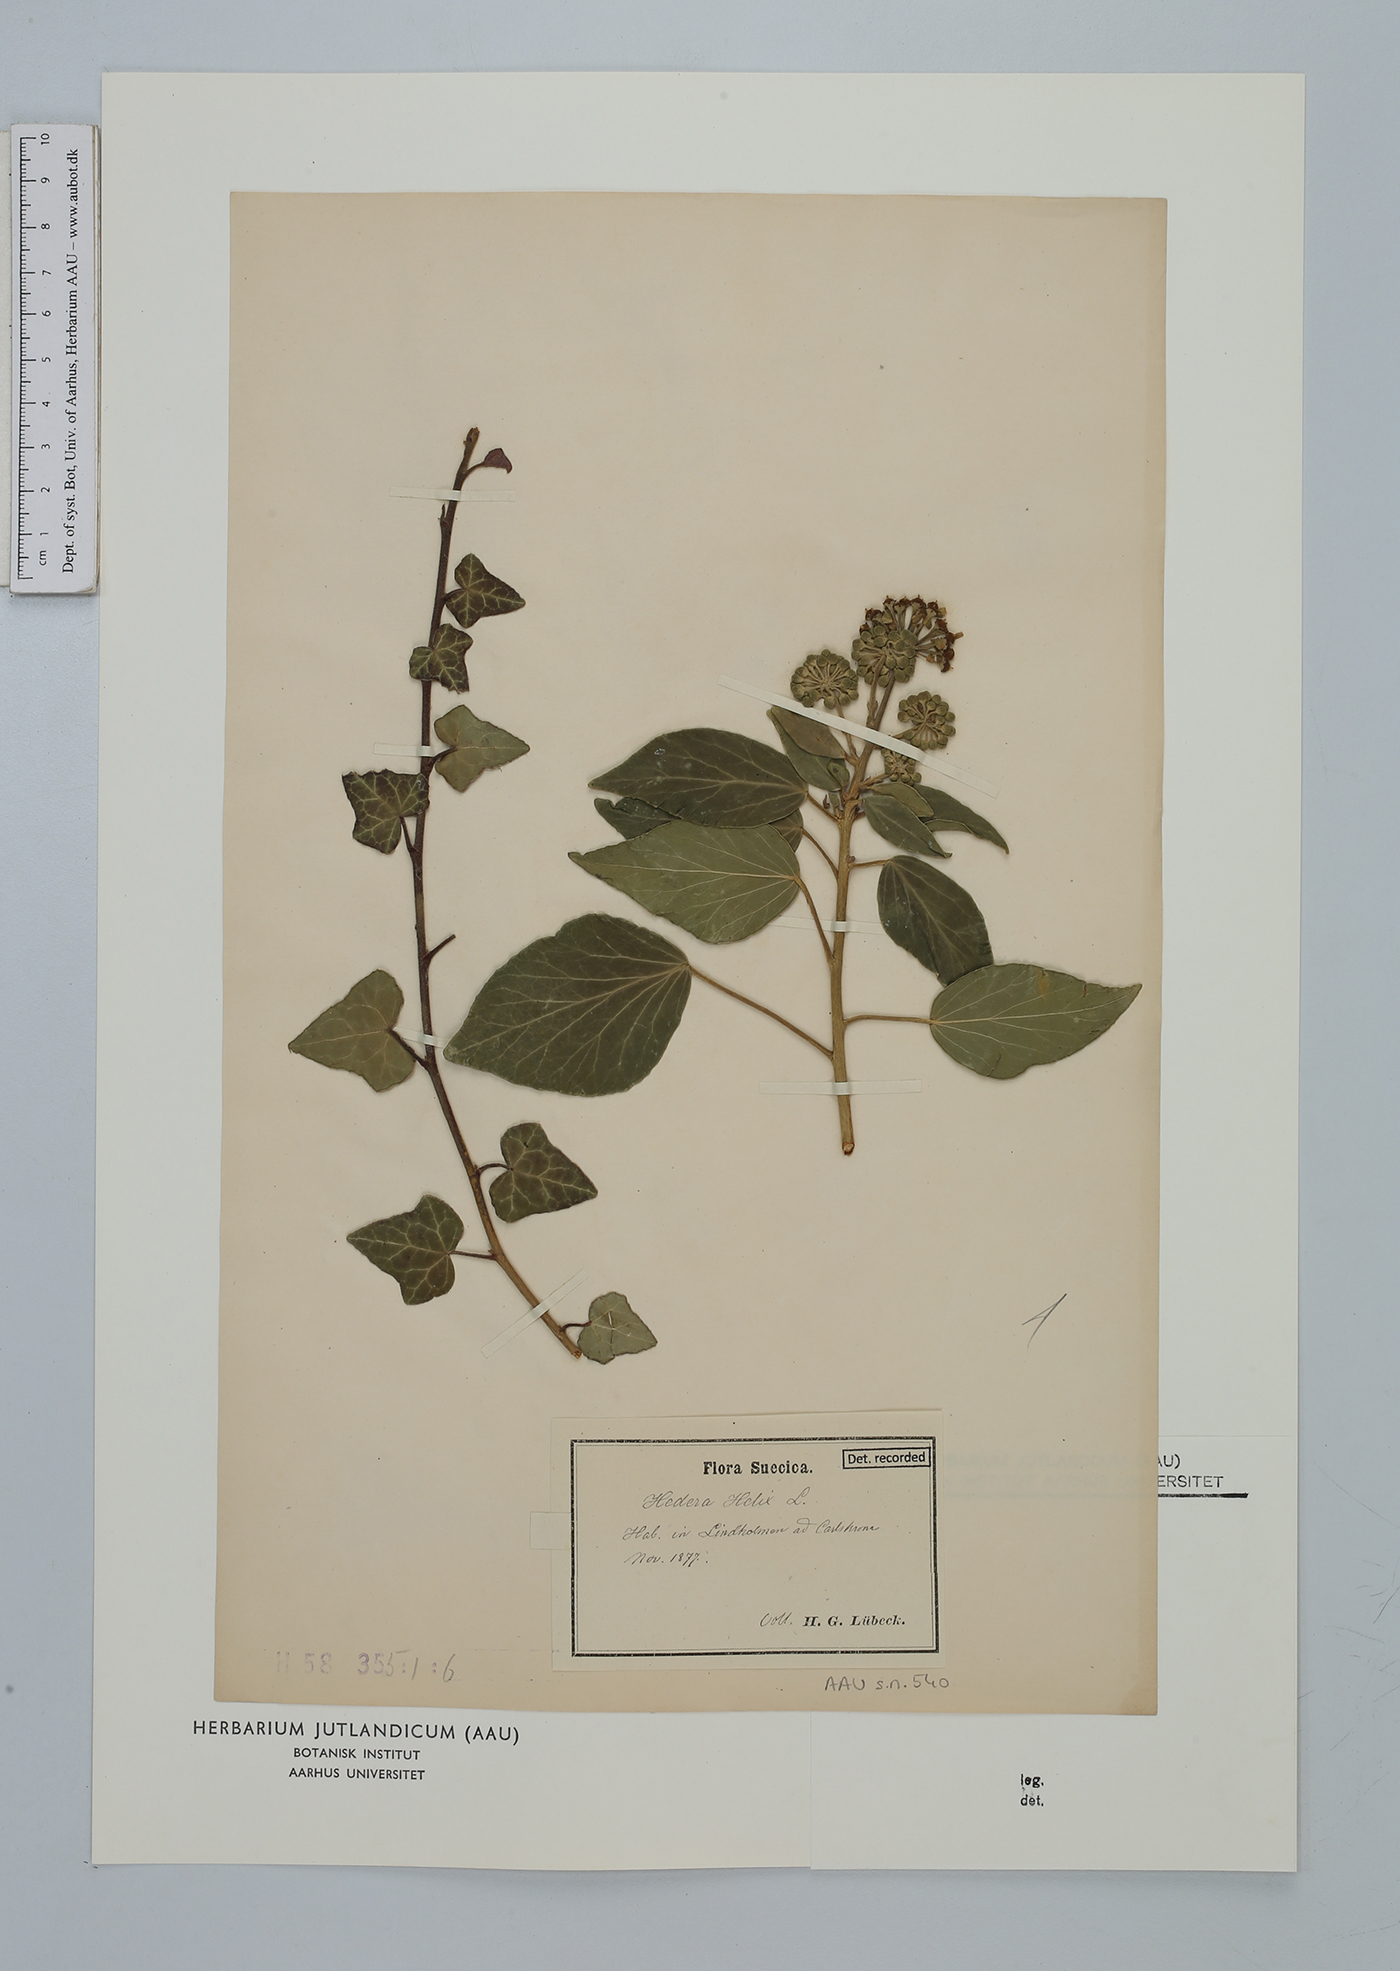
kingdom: Plantae
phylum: Tracheophyta
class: Magnoliopsida
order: Apiales
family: Araliaceae
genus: Hedera
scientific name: Hedera helix
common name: Ivy
